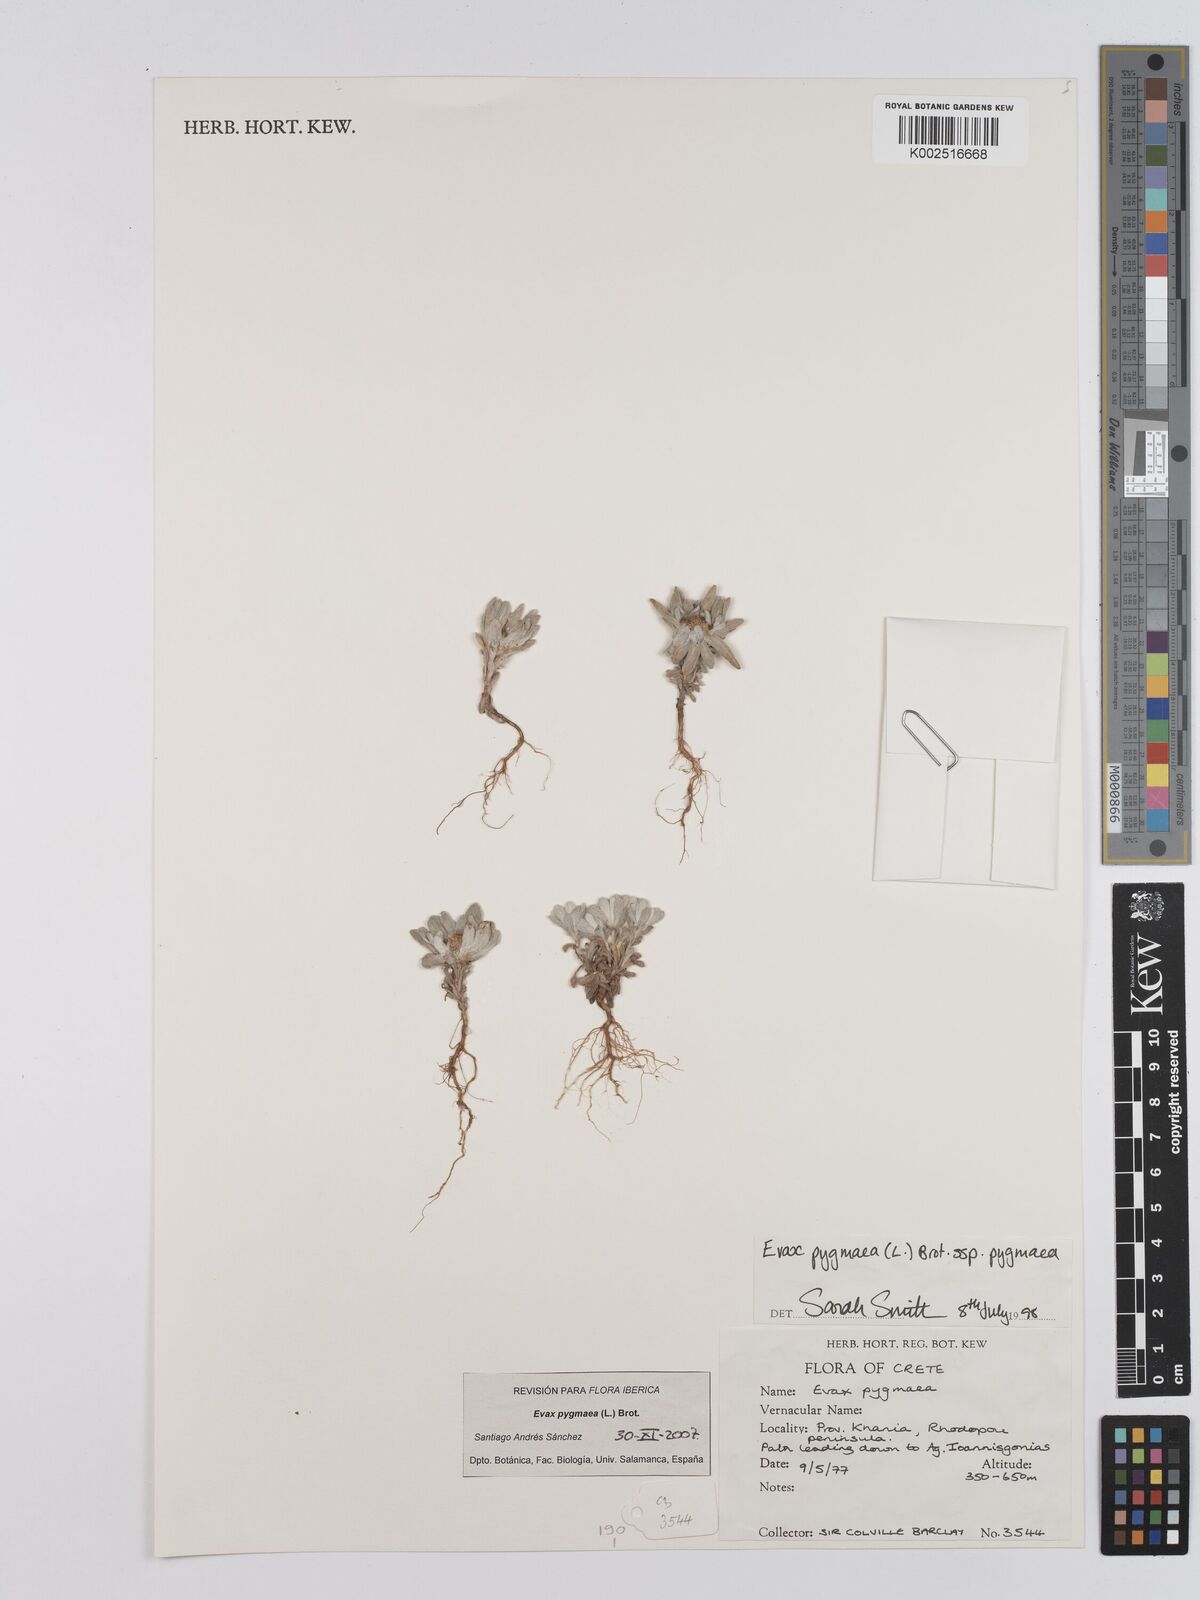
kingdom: Plantae
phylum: Tracheophyta
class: Magnoliopsida
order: Asterales
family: Asteraceae
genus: Filago
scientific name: Filago pygmaea
